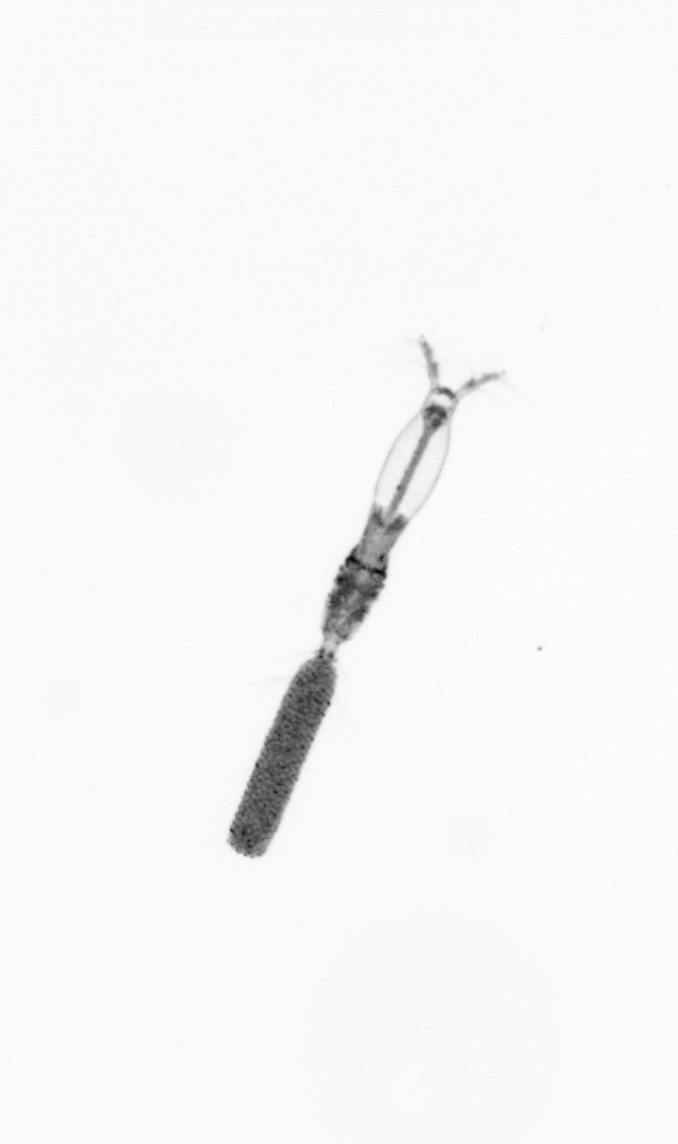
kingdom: Animalia
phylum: Arthropoda
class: Copepoda
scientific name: Copepoda
